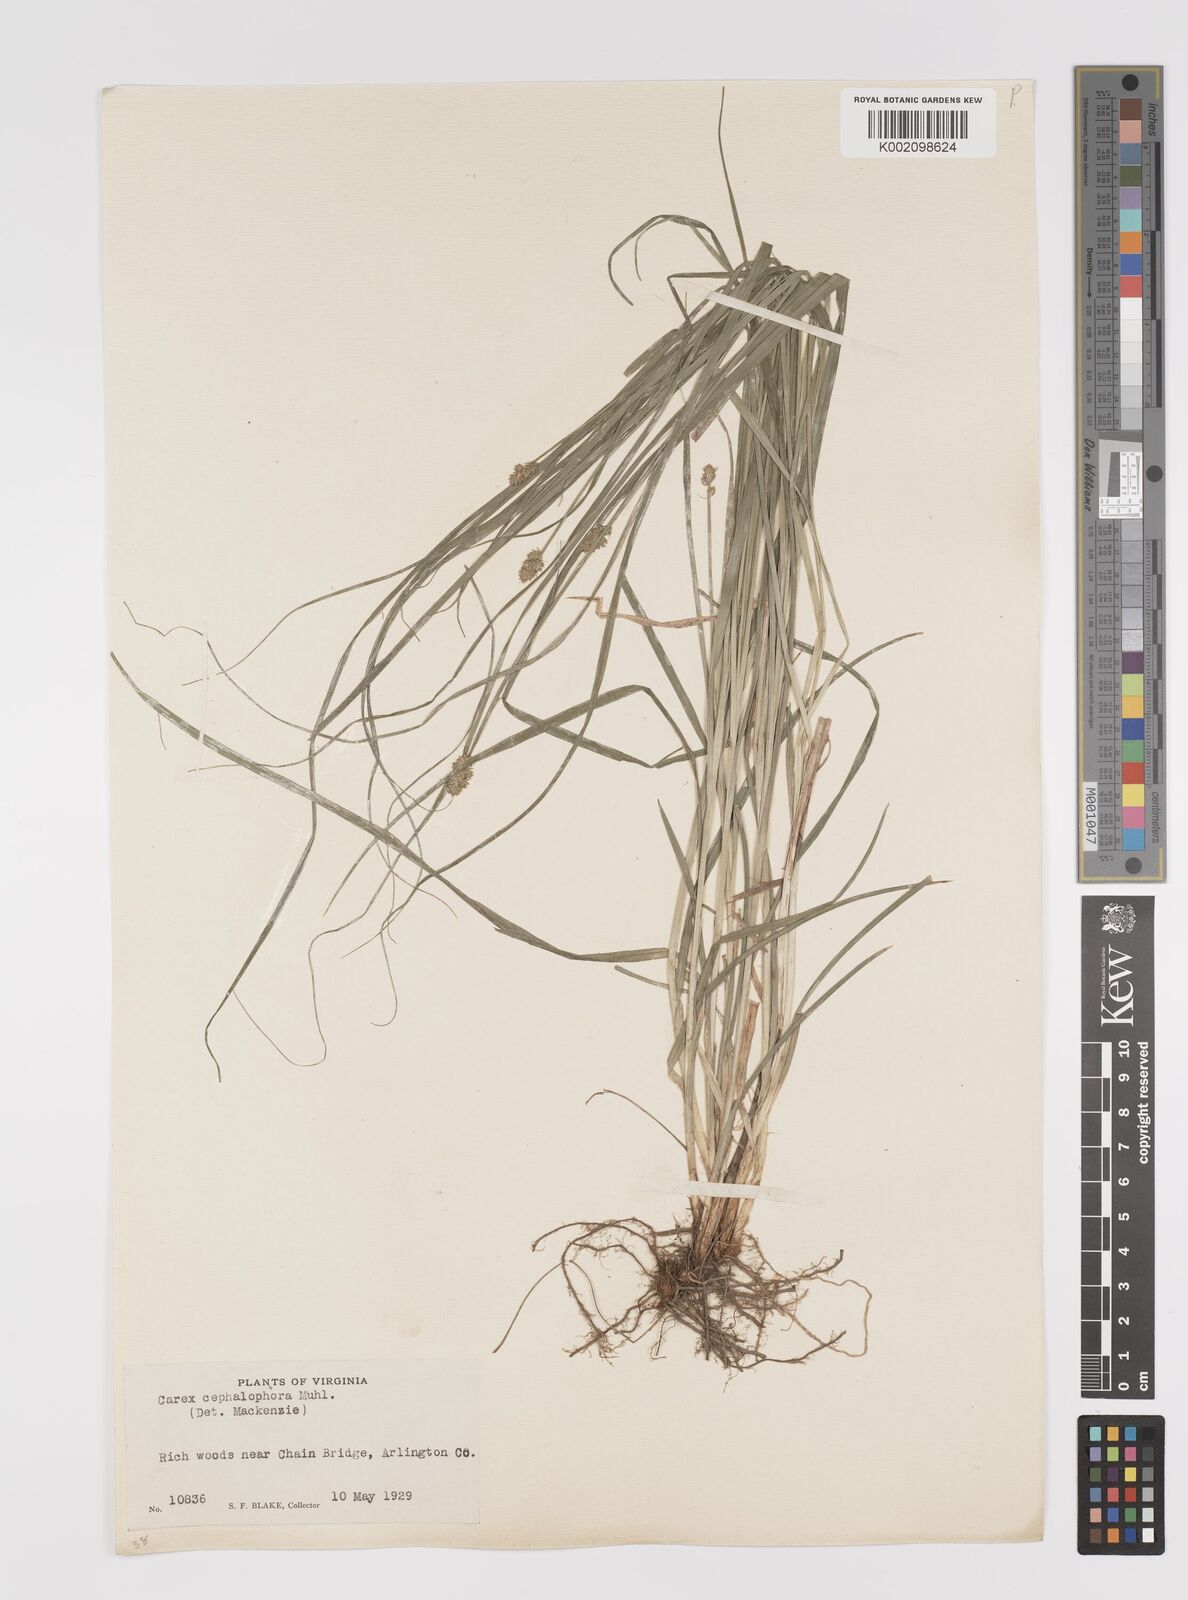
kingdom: Plantae
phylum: Tracheophyta
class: Liliopsida
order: Poales
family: Cyperaceae
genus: Carex
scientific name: Carex cephalophora
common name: Oval-headed sedge
